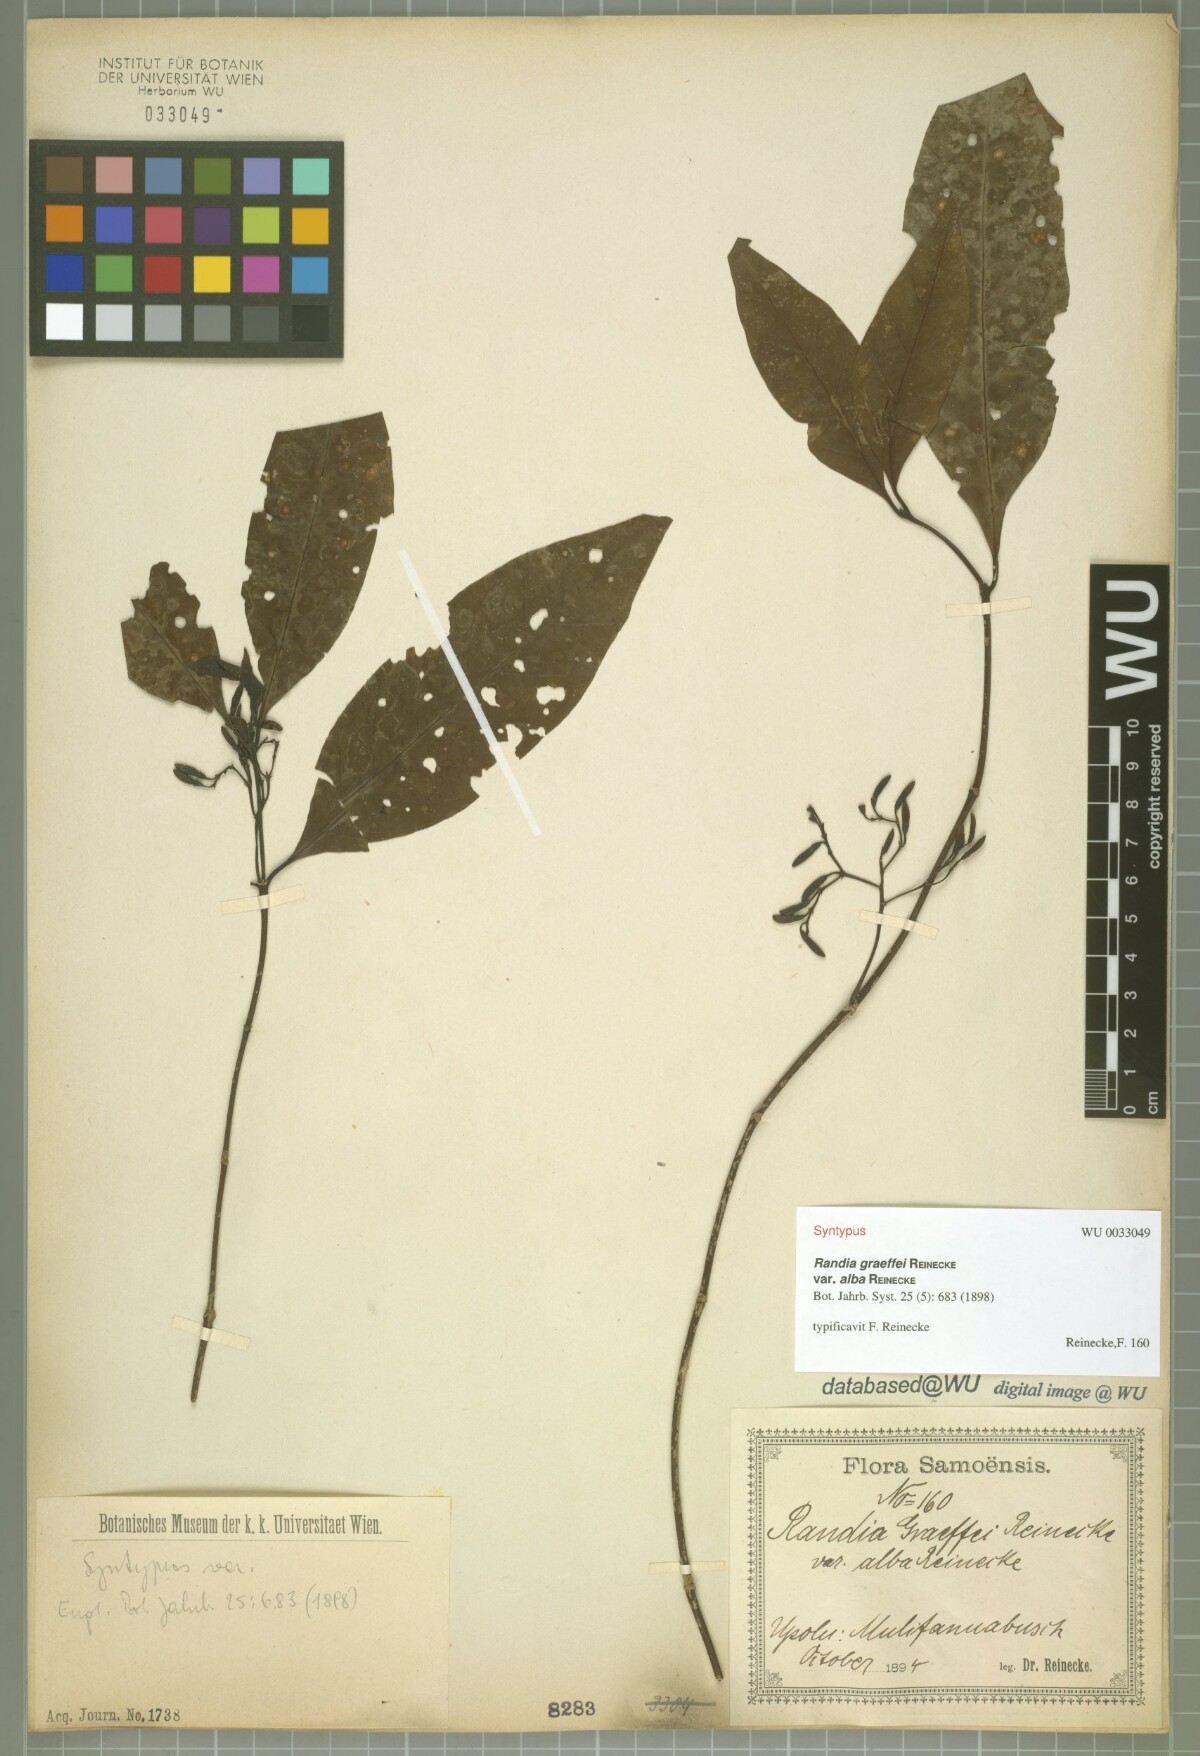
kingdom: Plantae
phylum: Tracheophyta
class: Magnoliopsida
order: Gentianales
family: Rubiaceae
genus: Aidia
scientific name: Aidia racemosa
